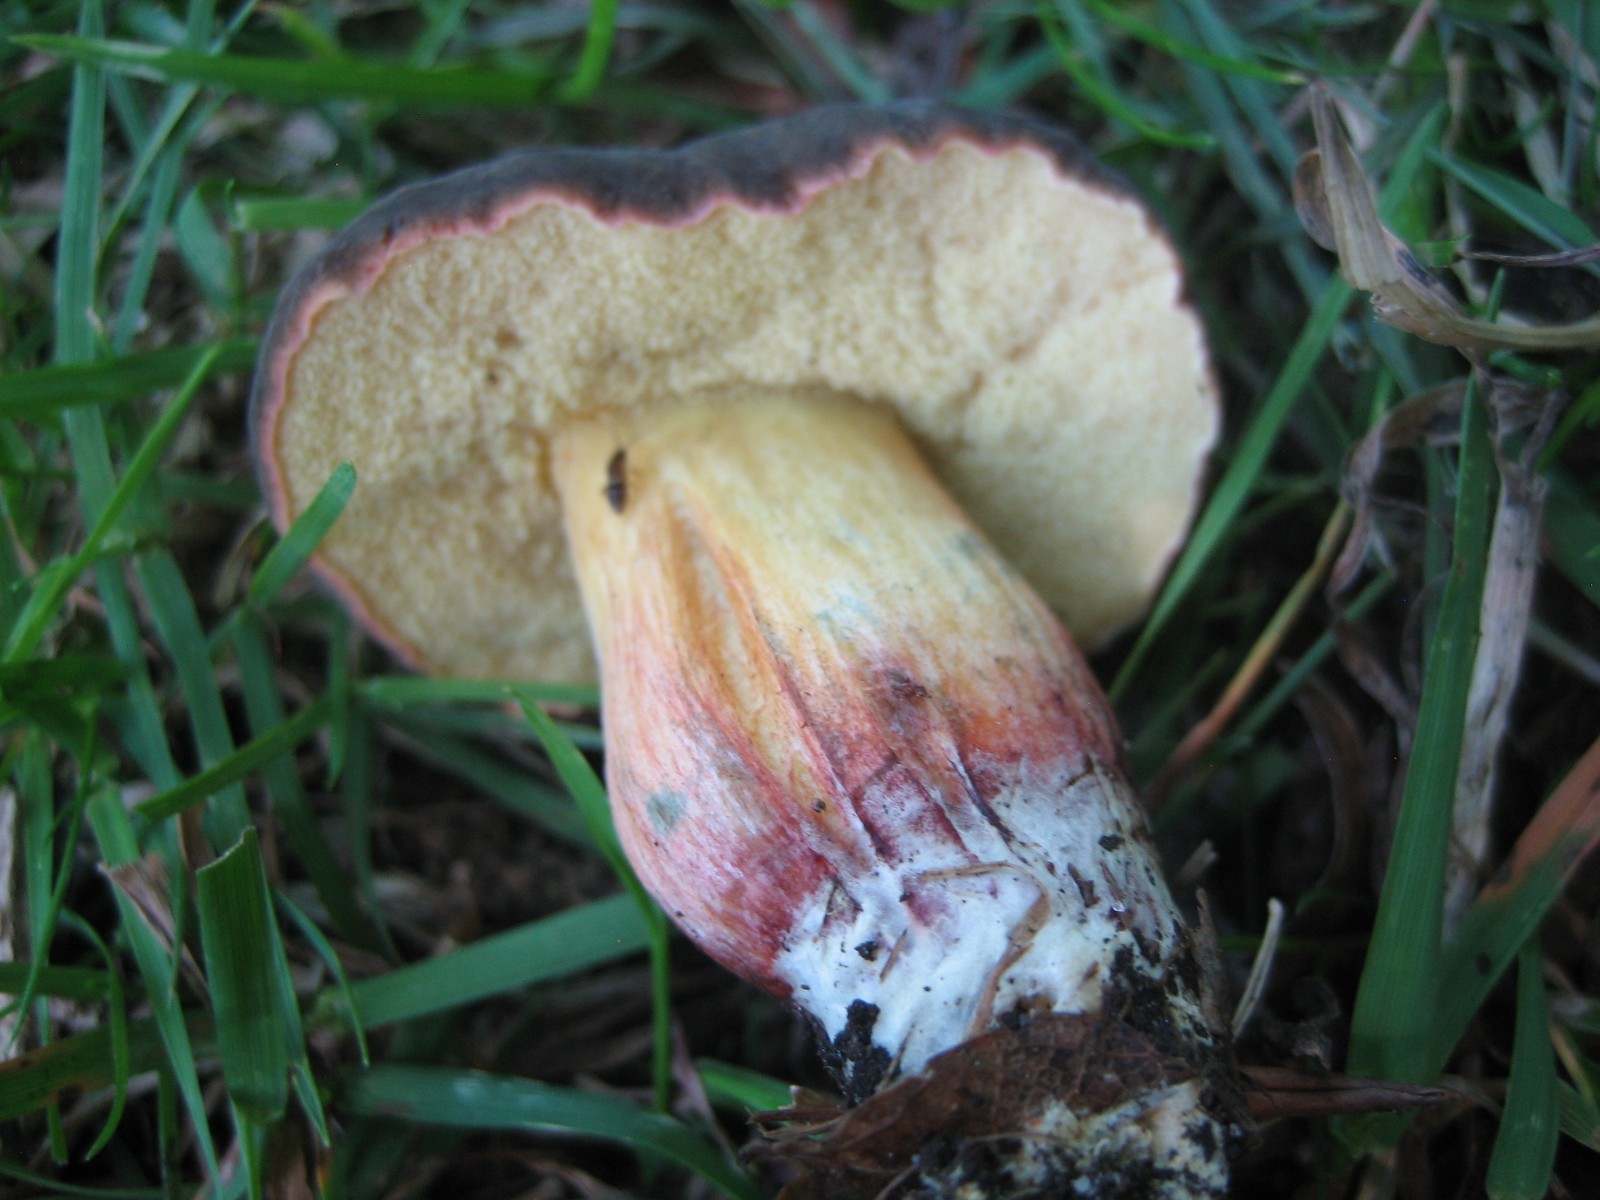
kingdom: Fungi
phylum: Basidiomycota
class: Agaricomycetes
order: Boletales
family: Boletaceae
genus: Xerocomellus
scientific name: Xerocomellus chrysenteron
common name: rødsprukken rørhat
